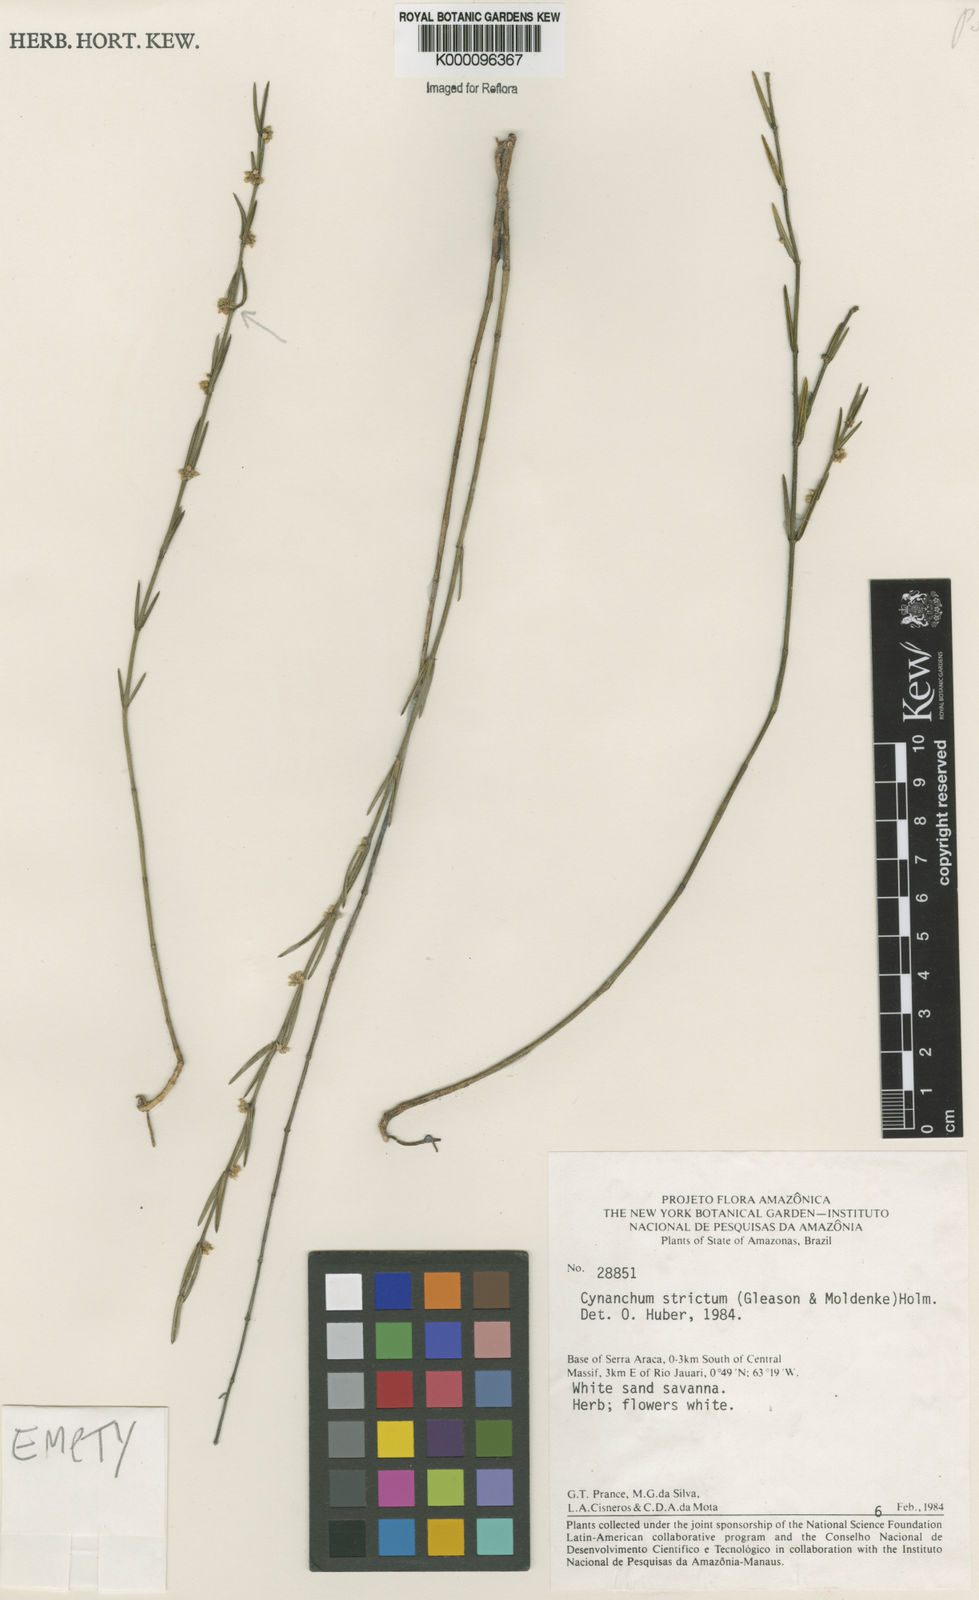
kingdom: Plantae
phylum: Tracheophyta
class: Magnoliopsida
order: Gentianales
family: Apocynaceae
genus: Tassadia
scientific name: Tassadia stricta
